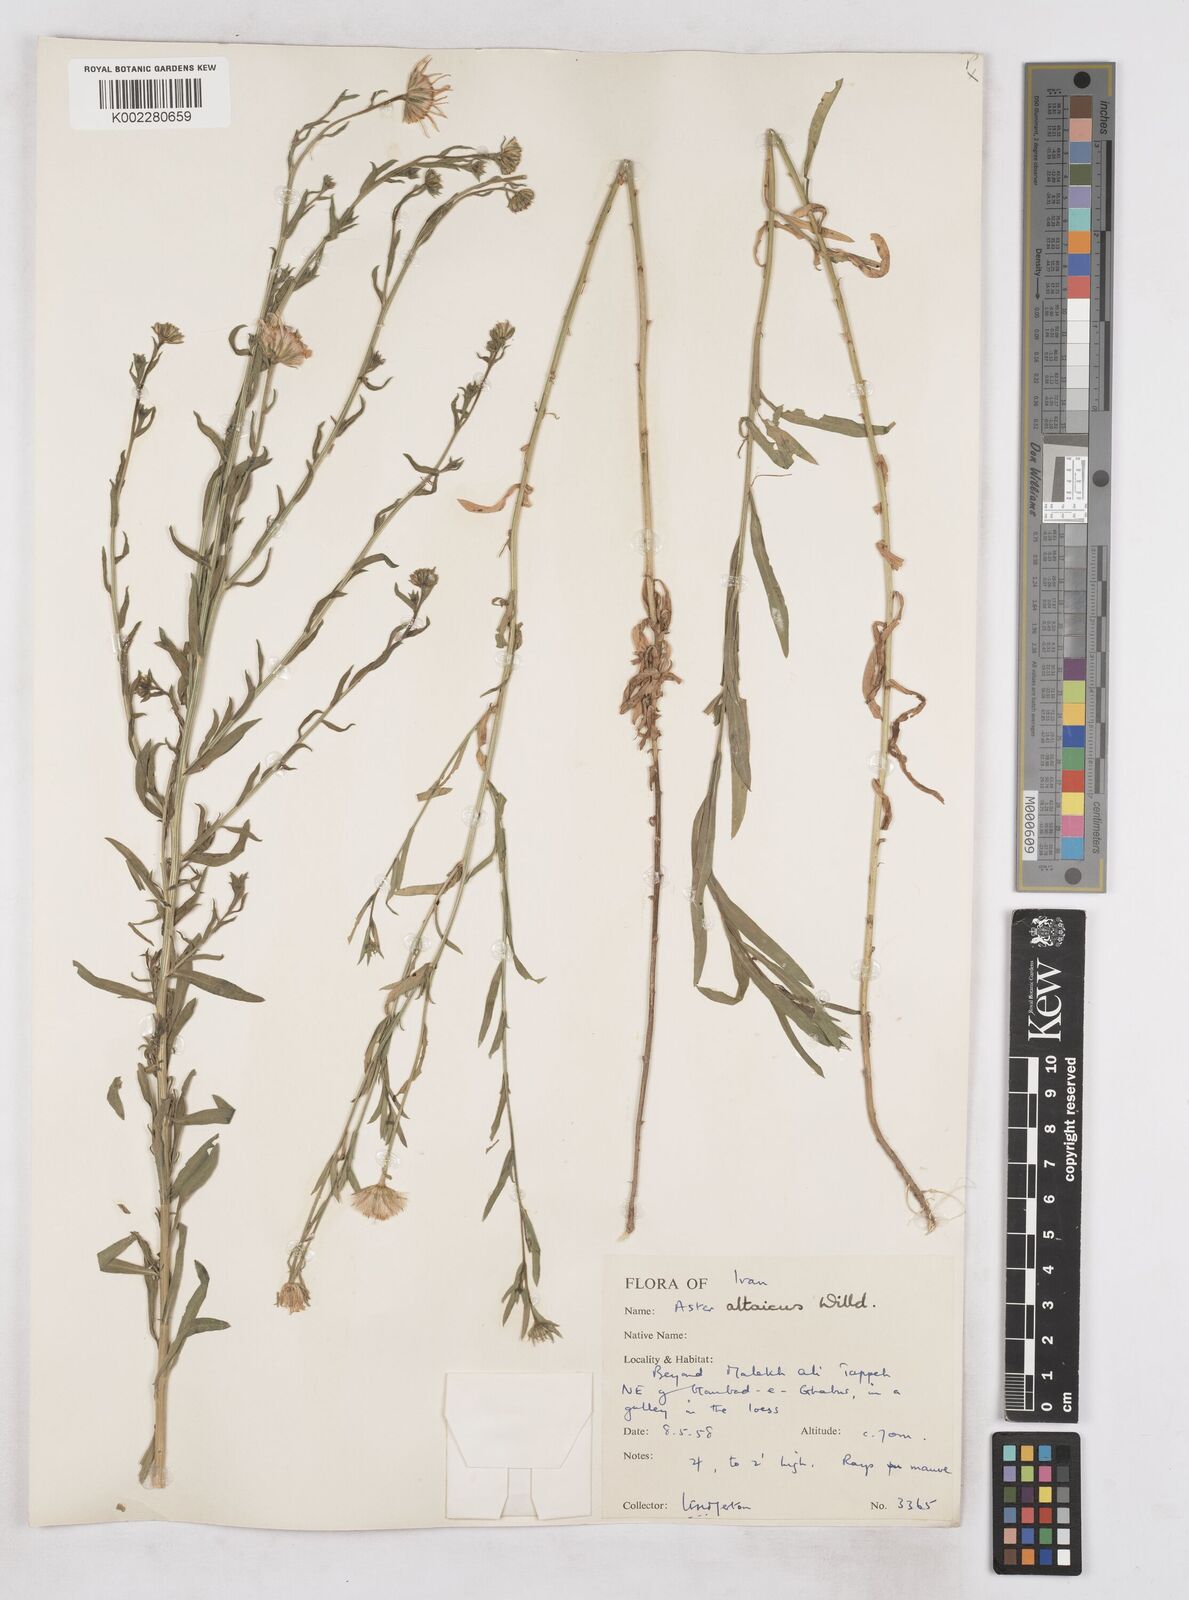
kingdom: Plantae
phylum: Tracheophyta
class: Magnoliopsida
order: Asterales
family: Asteraceae
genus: Heteropappus
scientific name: Heteropappus altaicus
